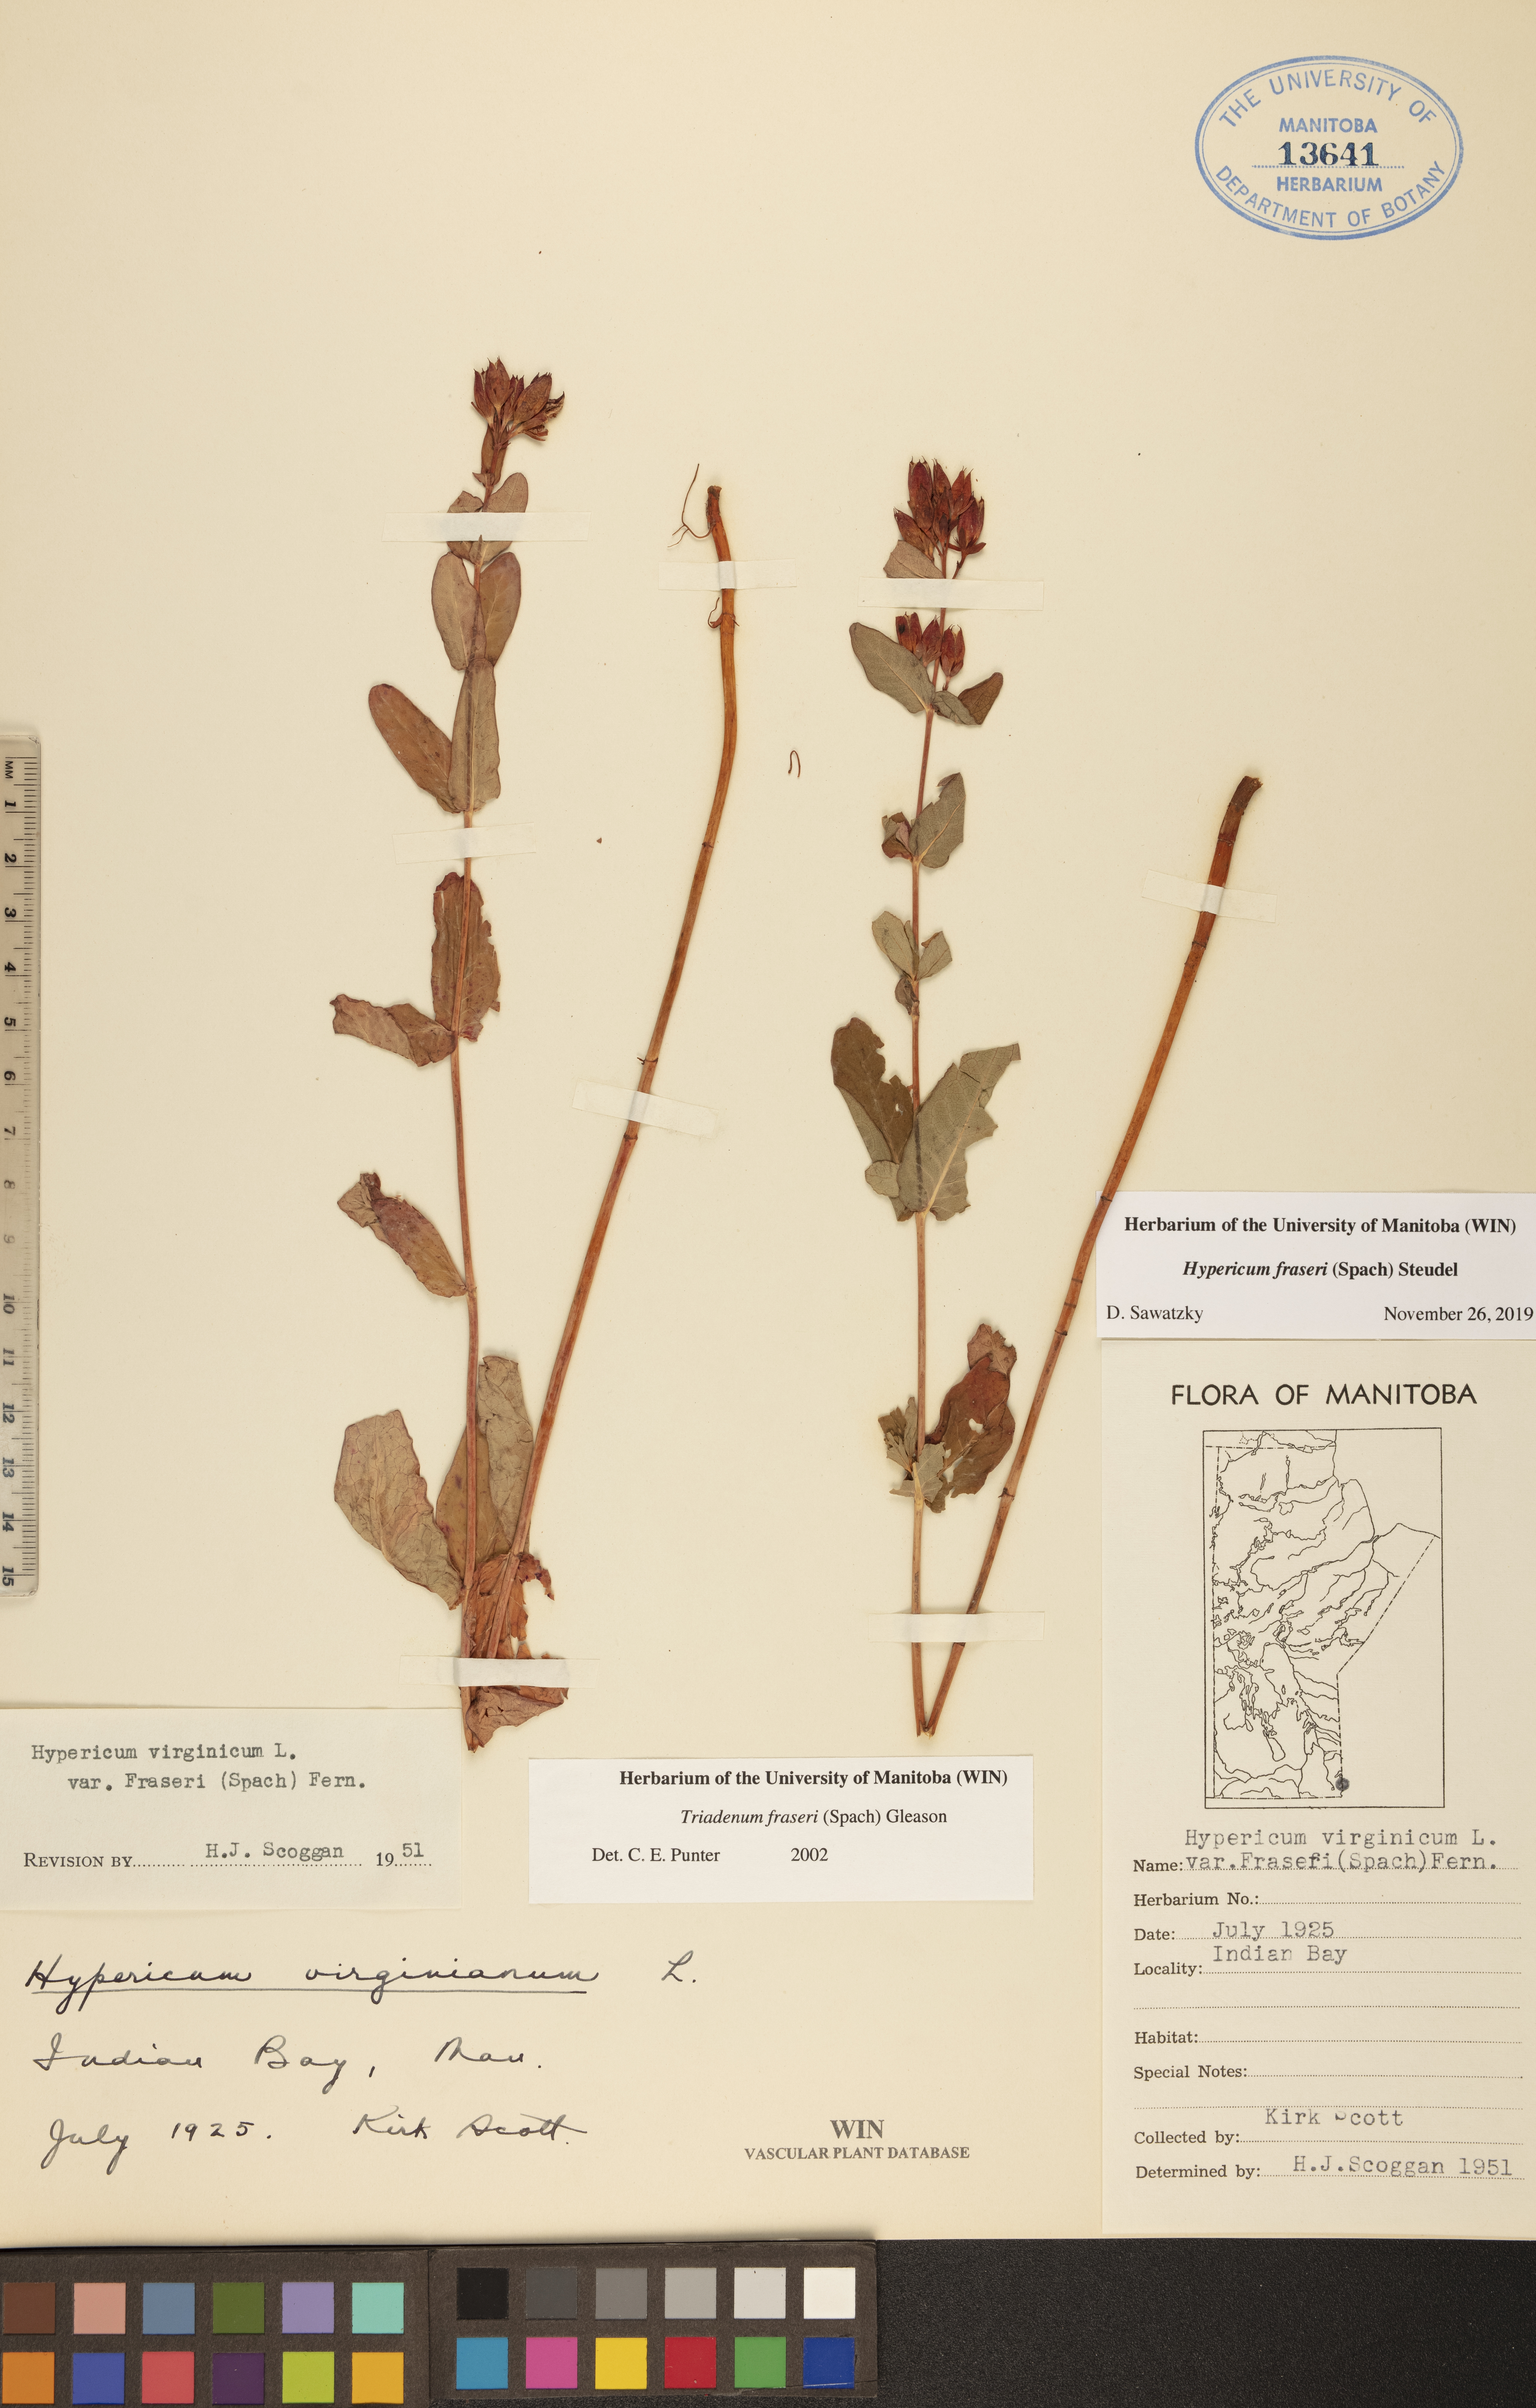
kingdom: Plantae
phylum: Tracheophyta
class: Magnoliopsida
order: Malpighiales
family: Hypericaceae
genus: Triadenum
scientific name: Triadenum fraseri
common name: Fraser's marsh st. johnswort
